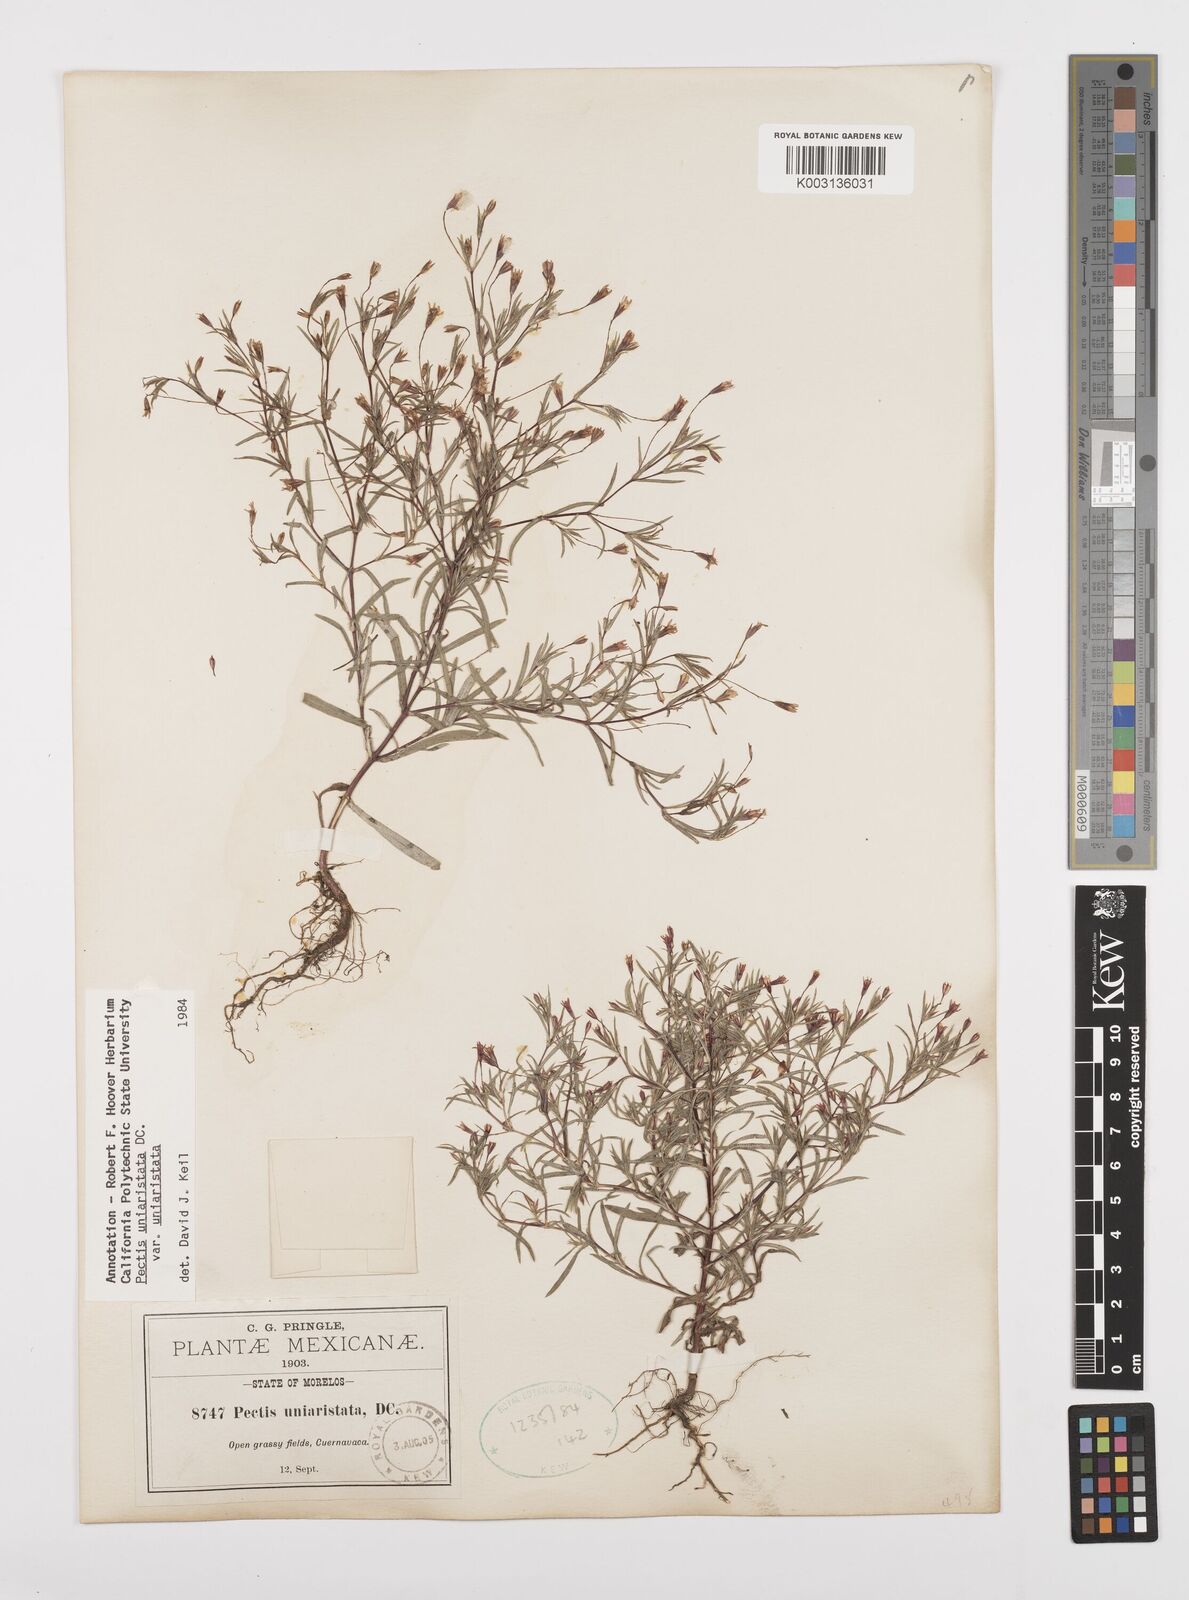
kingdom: Plantae
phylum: Tracheophyta
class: Magnoliopsida
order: Asterales
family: Asteraceae
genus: Pectis
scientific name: Pectis uniaristata
